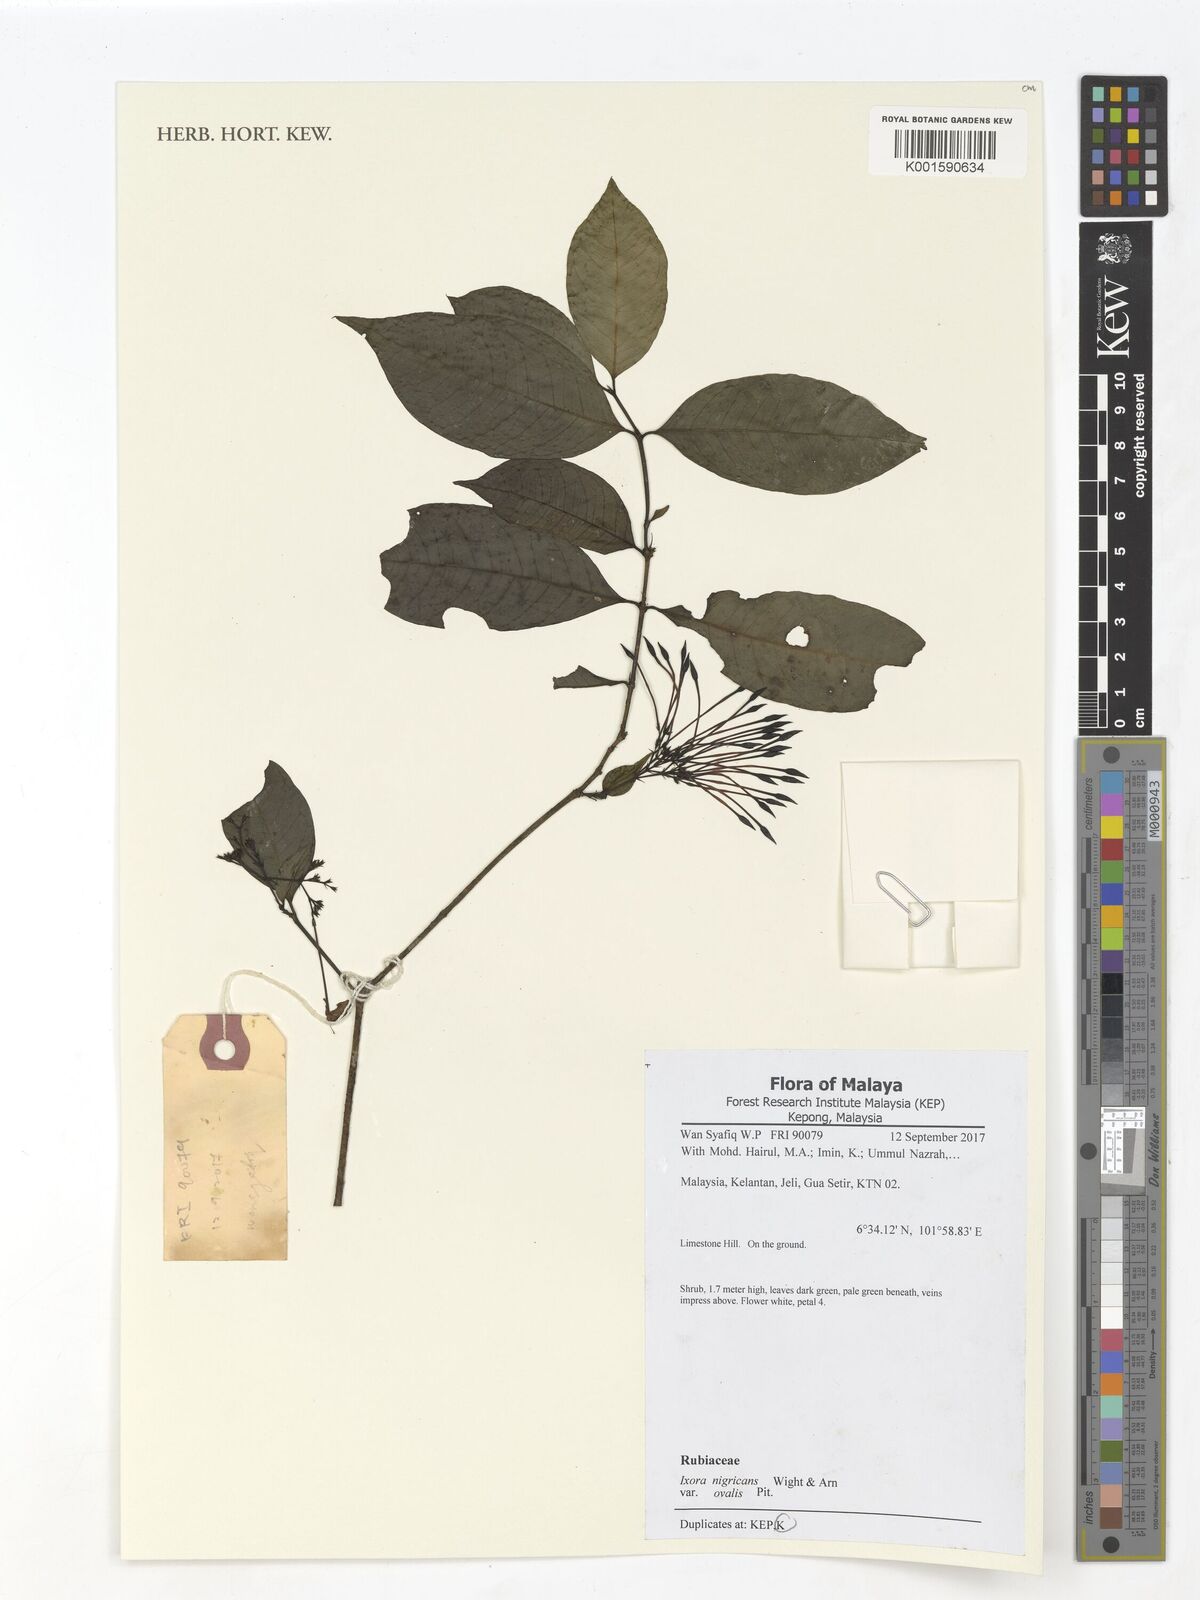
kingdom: Plantae
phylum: Tracheophyta
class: Magnoliopsida
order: Gentianales
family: Rubiaceae
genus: Ixora
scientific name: Ixora nigricans
